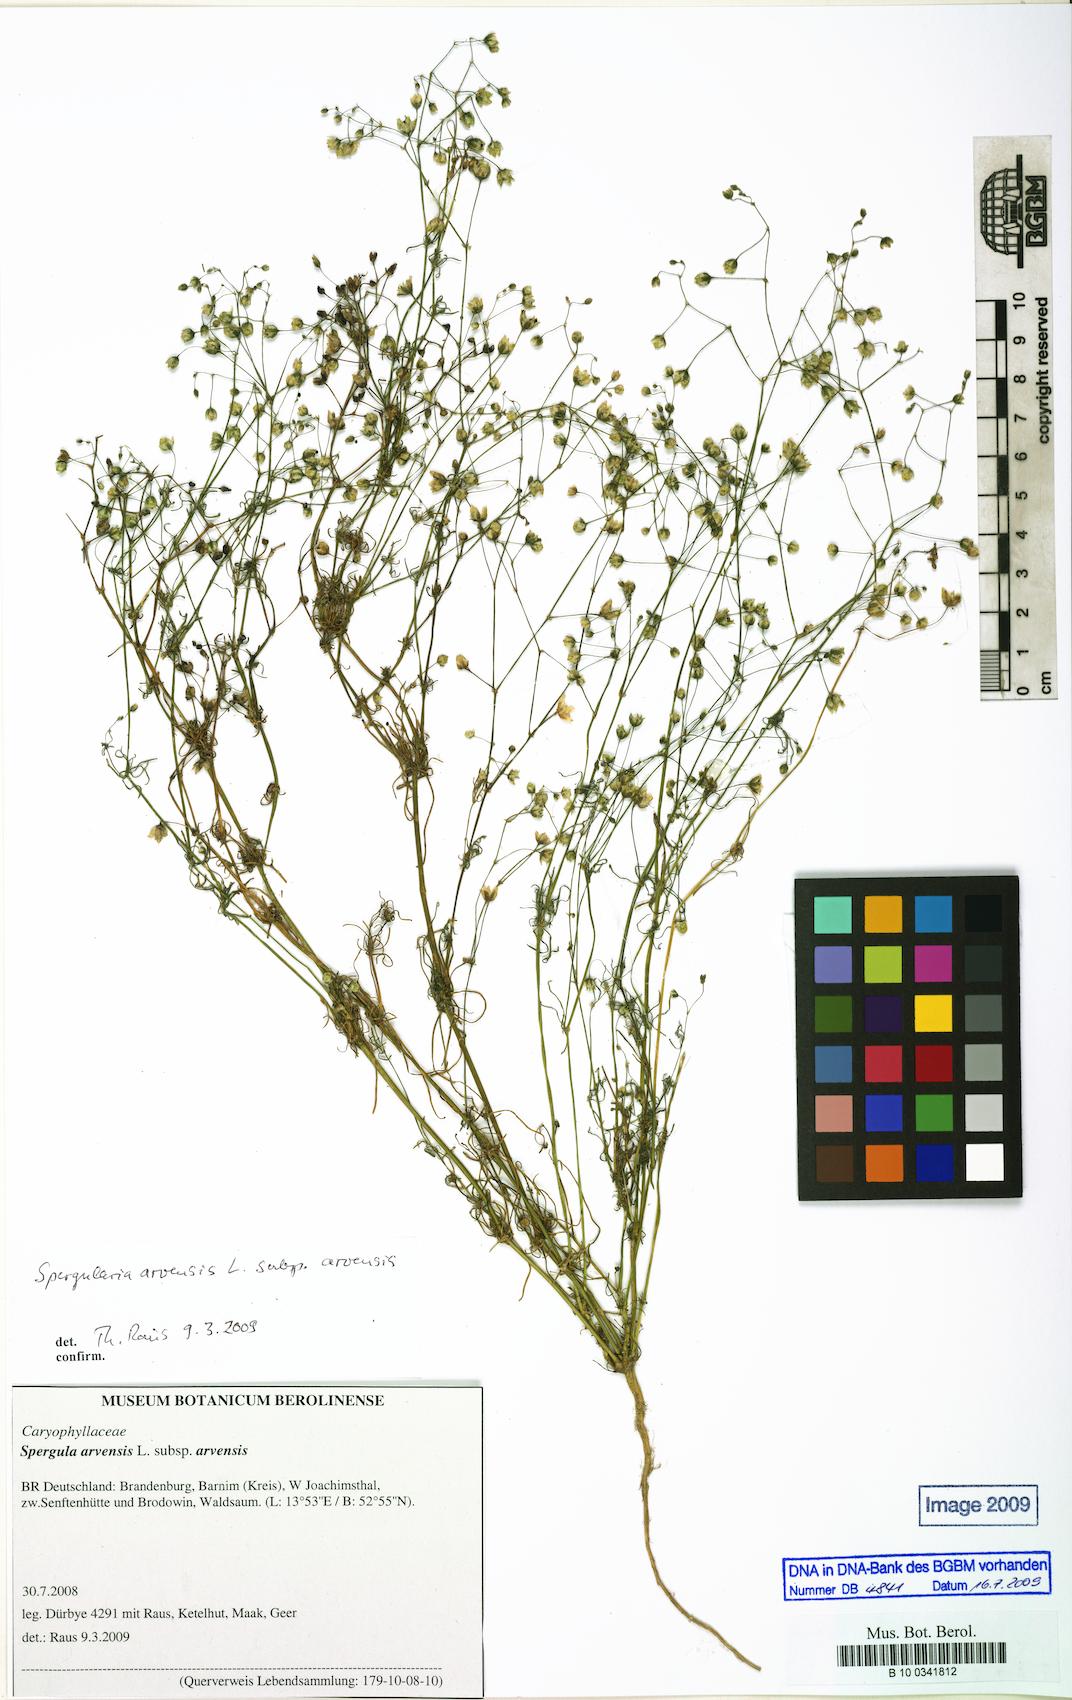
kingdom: Plantae
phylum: Tracheophyta
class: Magnoliopsida
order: Caryophyllales
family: Caryophyllaceae
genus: Spergula
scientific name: Spergula arvensis
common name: Corn spurrey
